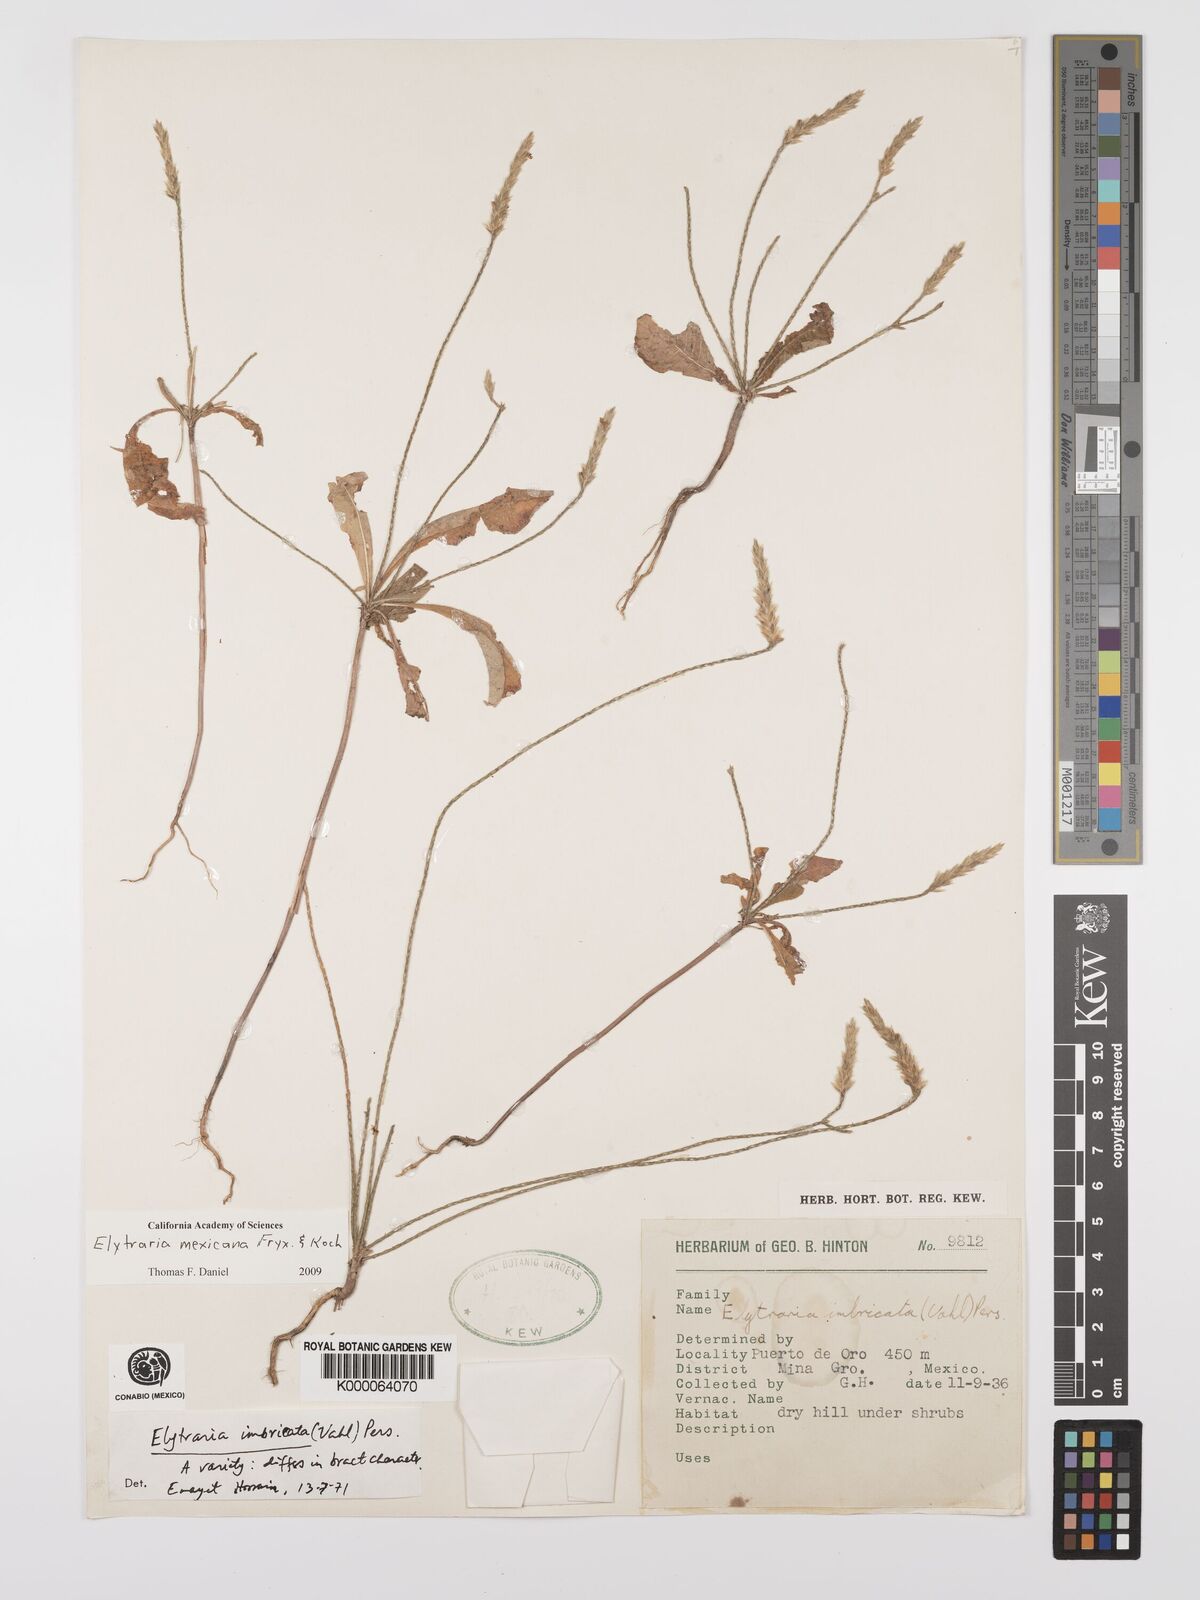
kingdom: Plantae
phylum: Tracheophyta
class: Magnoliopsida
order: Lamiales
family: Acanthaceae
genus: Elytraria
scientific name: Elytraria imbricata
